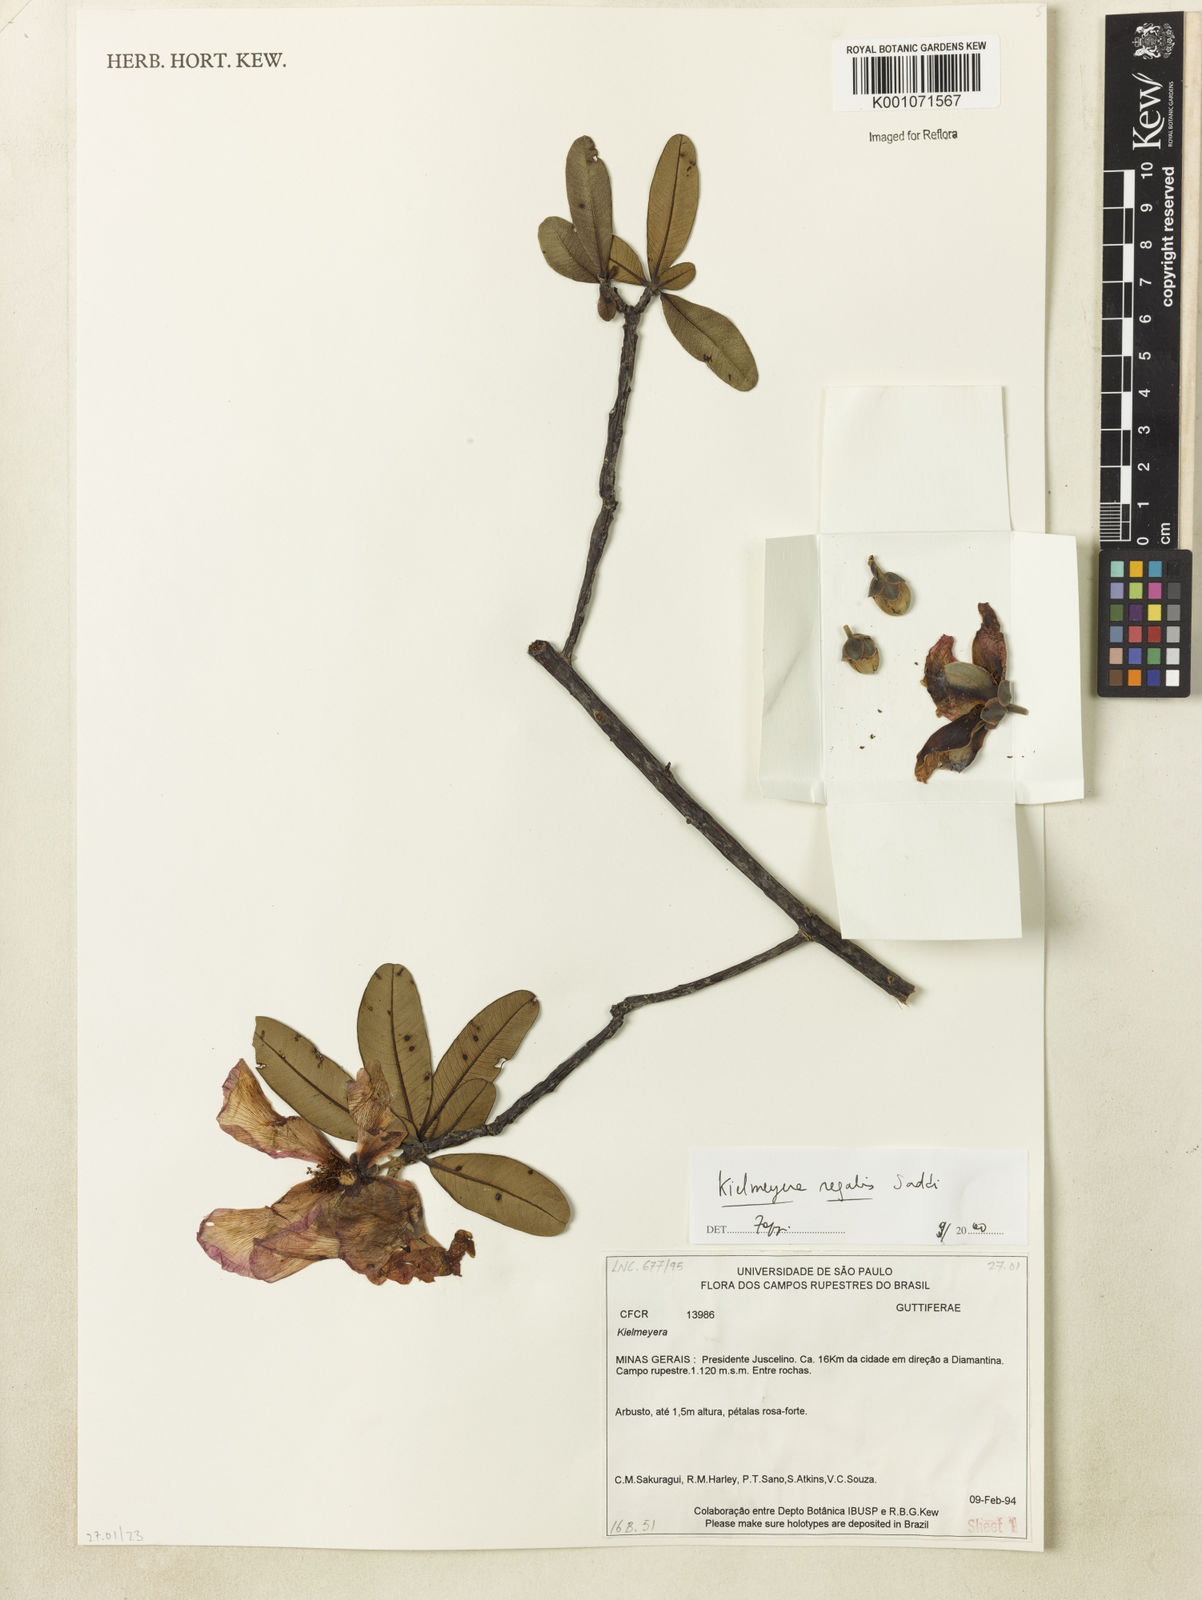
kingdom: Plantae
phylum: Tracheophyta
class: Magnoliopsida
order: Malpighiales
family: Calophyllaceae
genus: Kielmeyera
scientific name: Kielmeyera regalis
